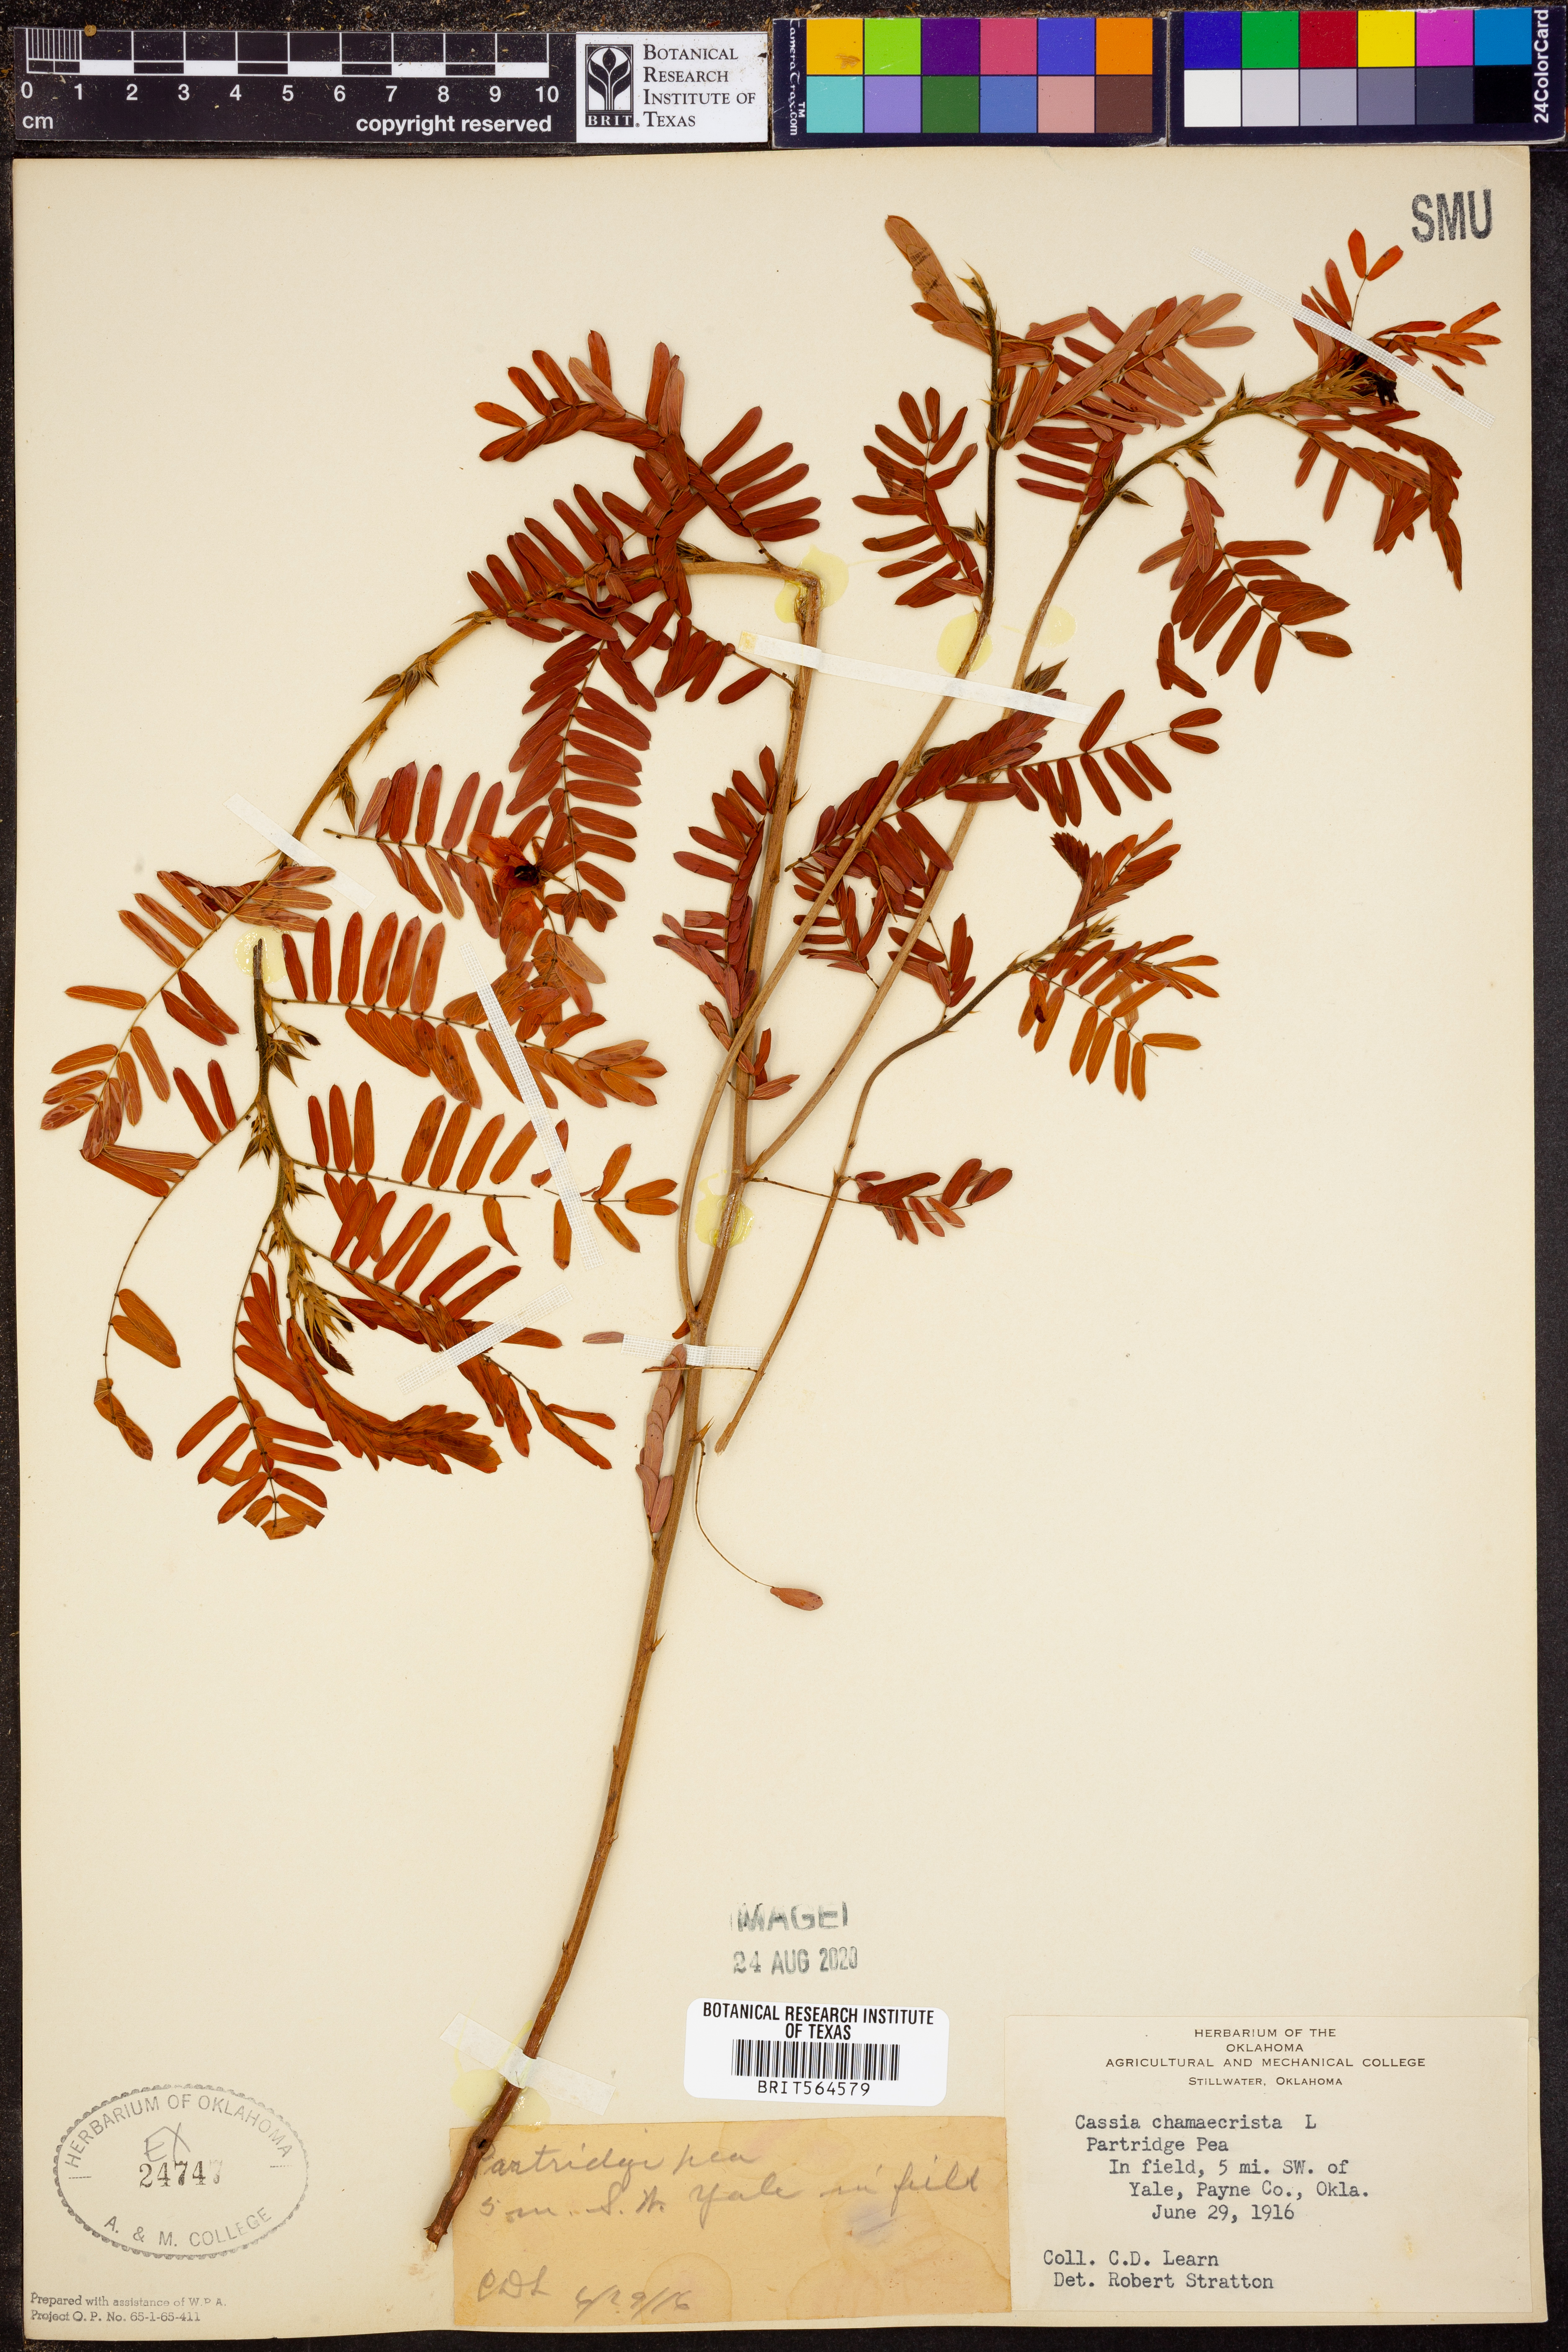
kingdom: Plantae
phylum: Tracheophyta
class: Magnoliopsida
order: Fabales
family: Fabaceae
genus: Chamaecrista
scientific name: Chamaecrista fasciculata
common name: Golden cassia
